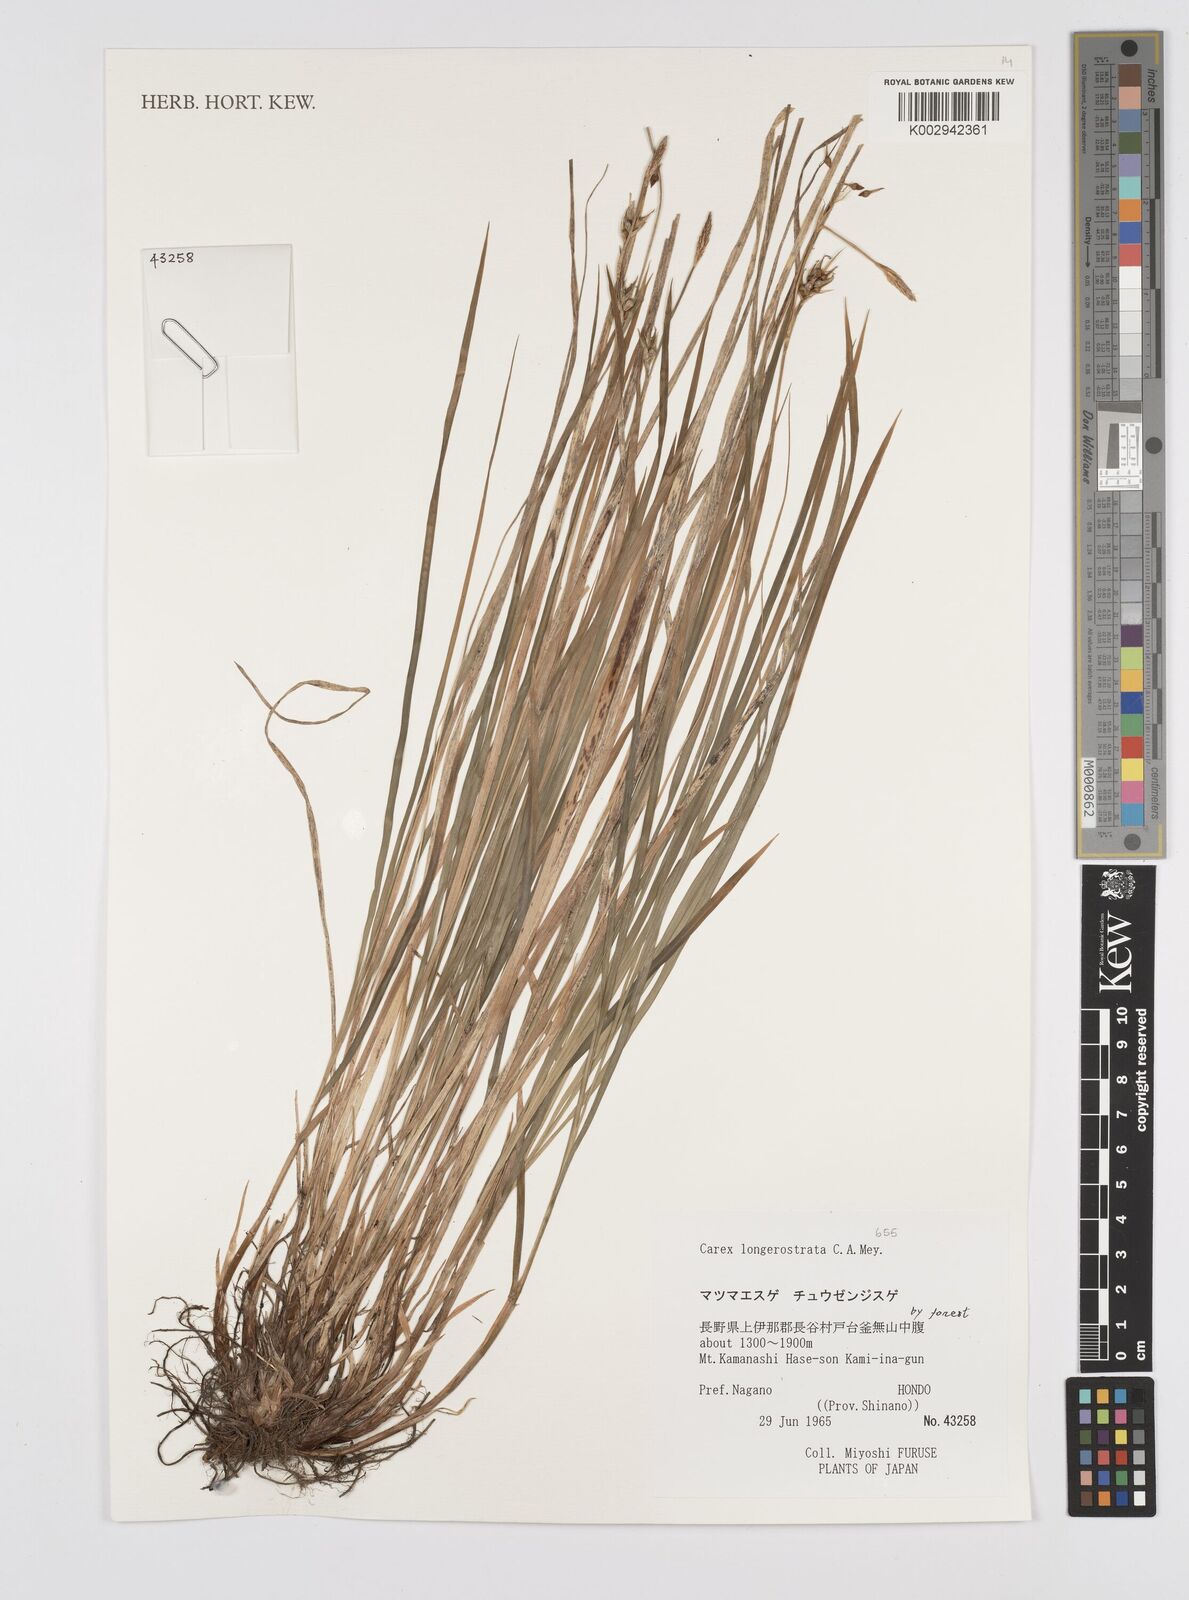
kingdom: Plantae
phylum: Tracheophyta
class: Liliopsida
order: Poales
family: Cyperaceae
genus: Carex
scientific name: Carex longerostrata
